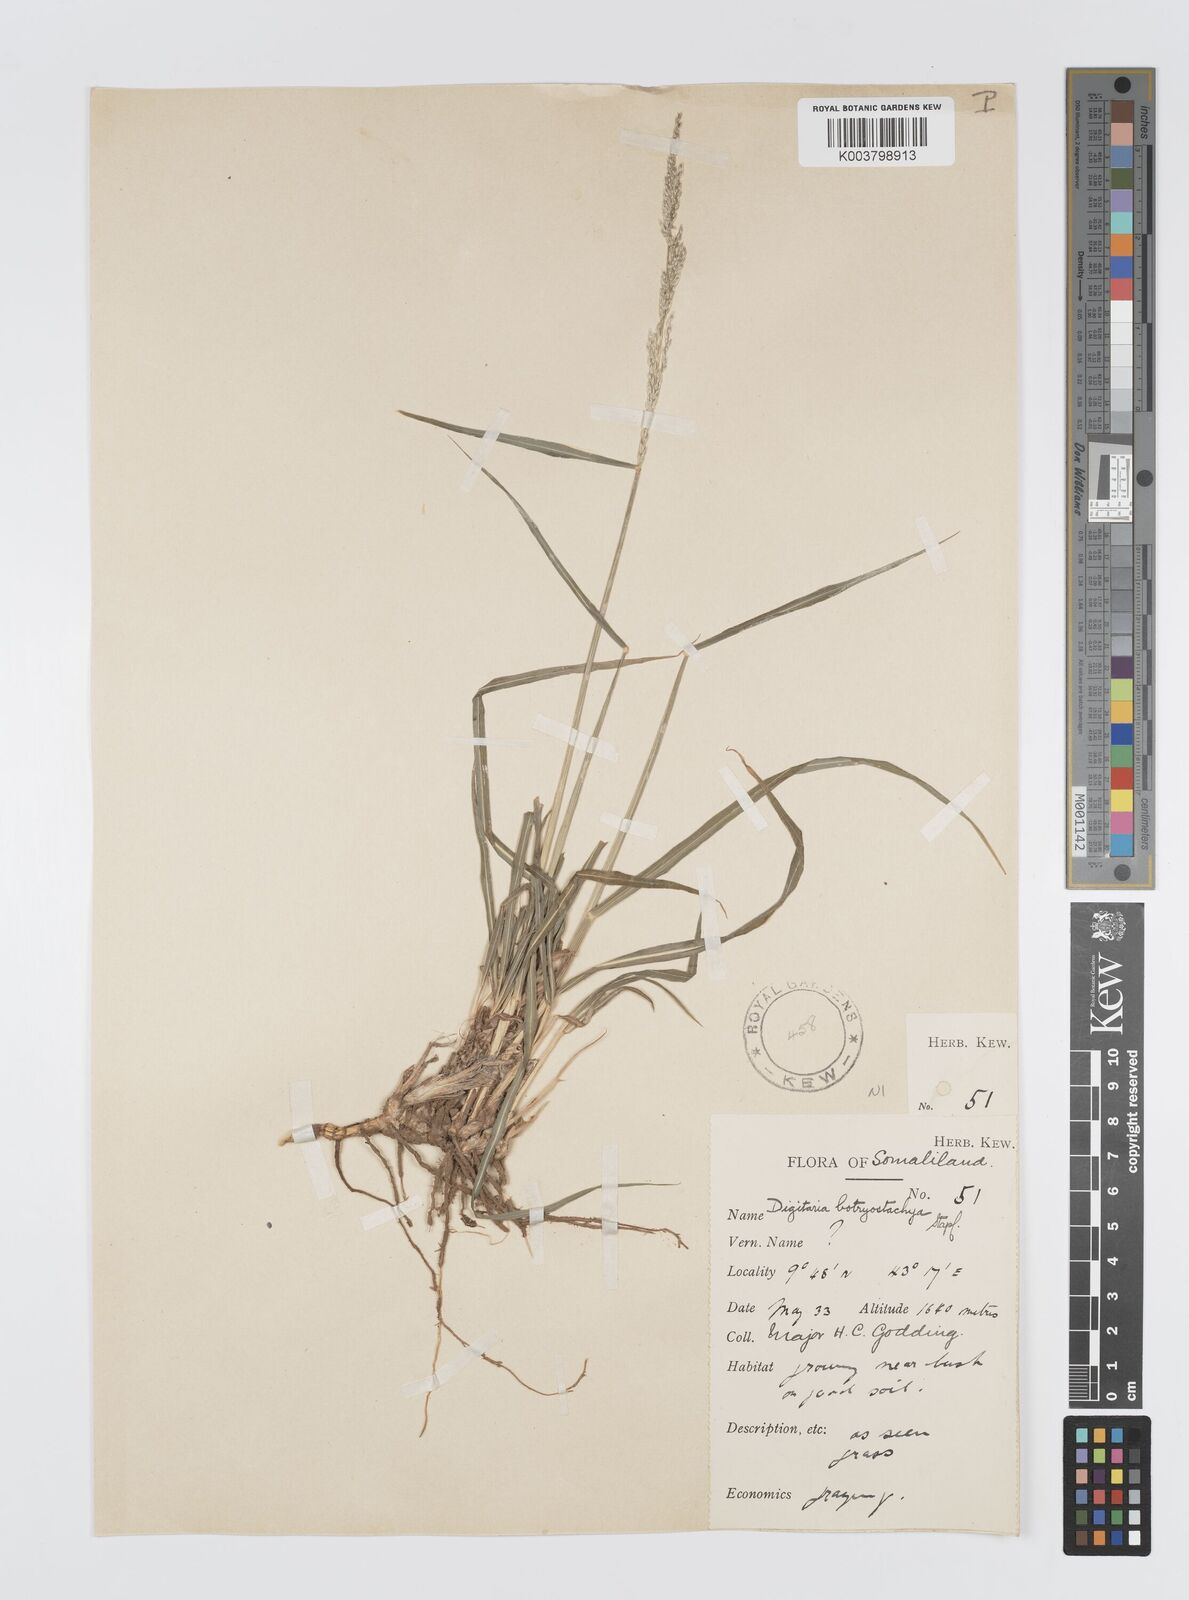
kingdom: Plantae
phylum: Tracheophyta
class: Liliopsida
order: Poales
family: Poaceae
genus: Digitaria
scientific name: Digitaria rivae
